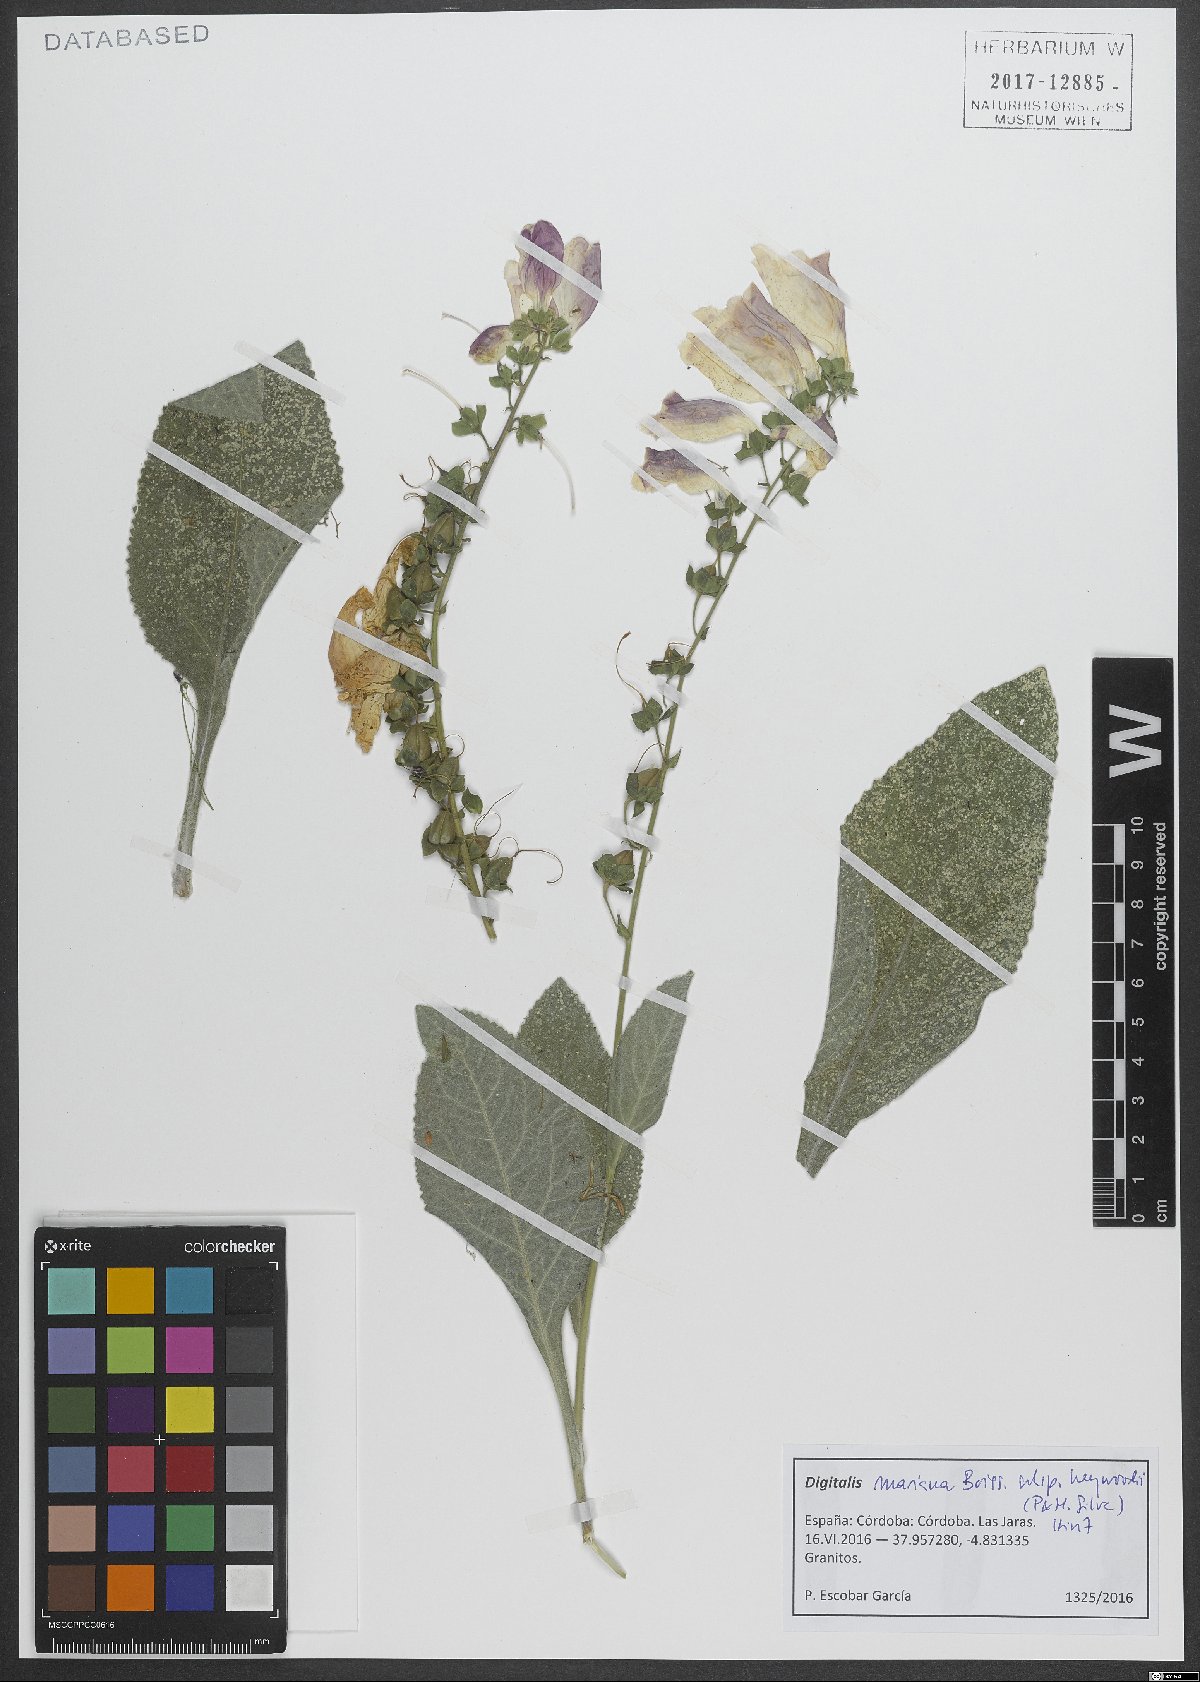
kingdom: Plantae
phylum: Tracheophyta
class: Magnoliopsida
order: Lamiales
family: Plantaginaceae
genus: Digitalis
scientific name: Digitalis mariana
